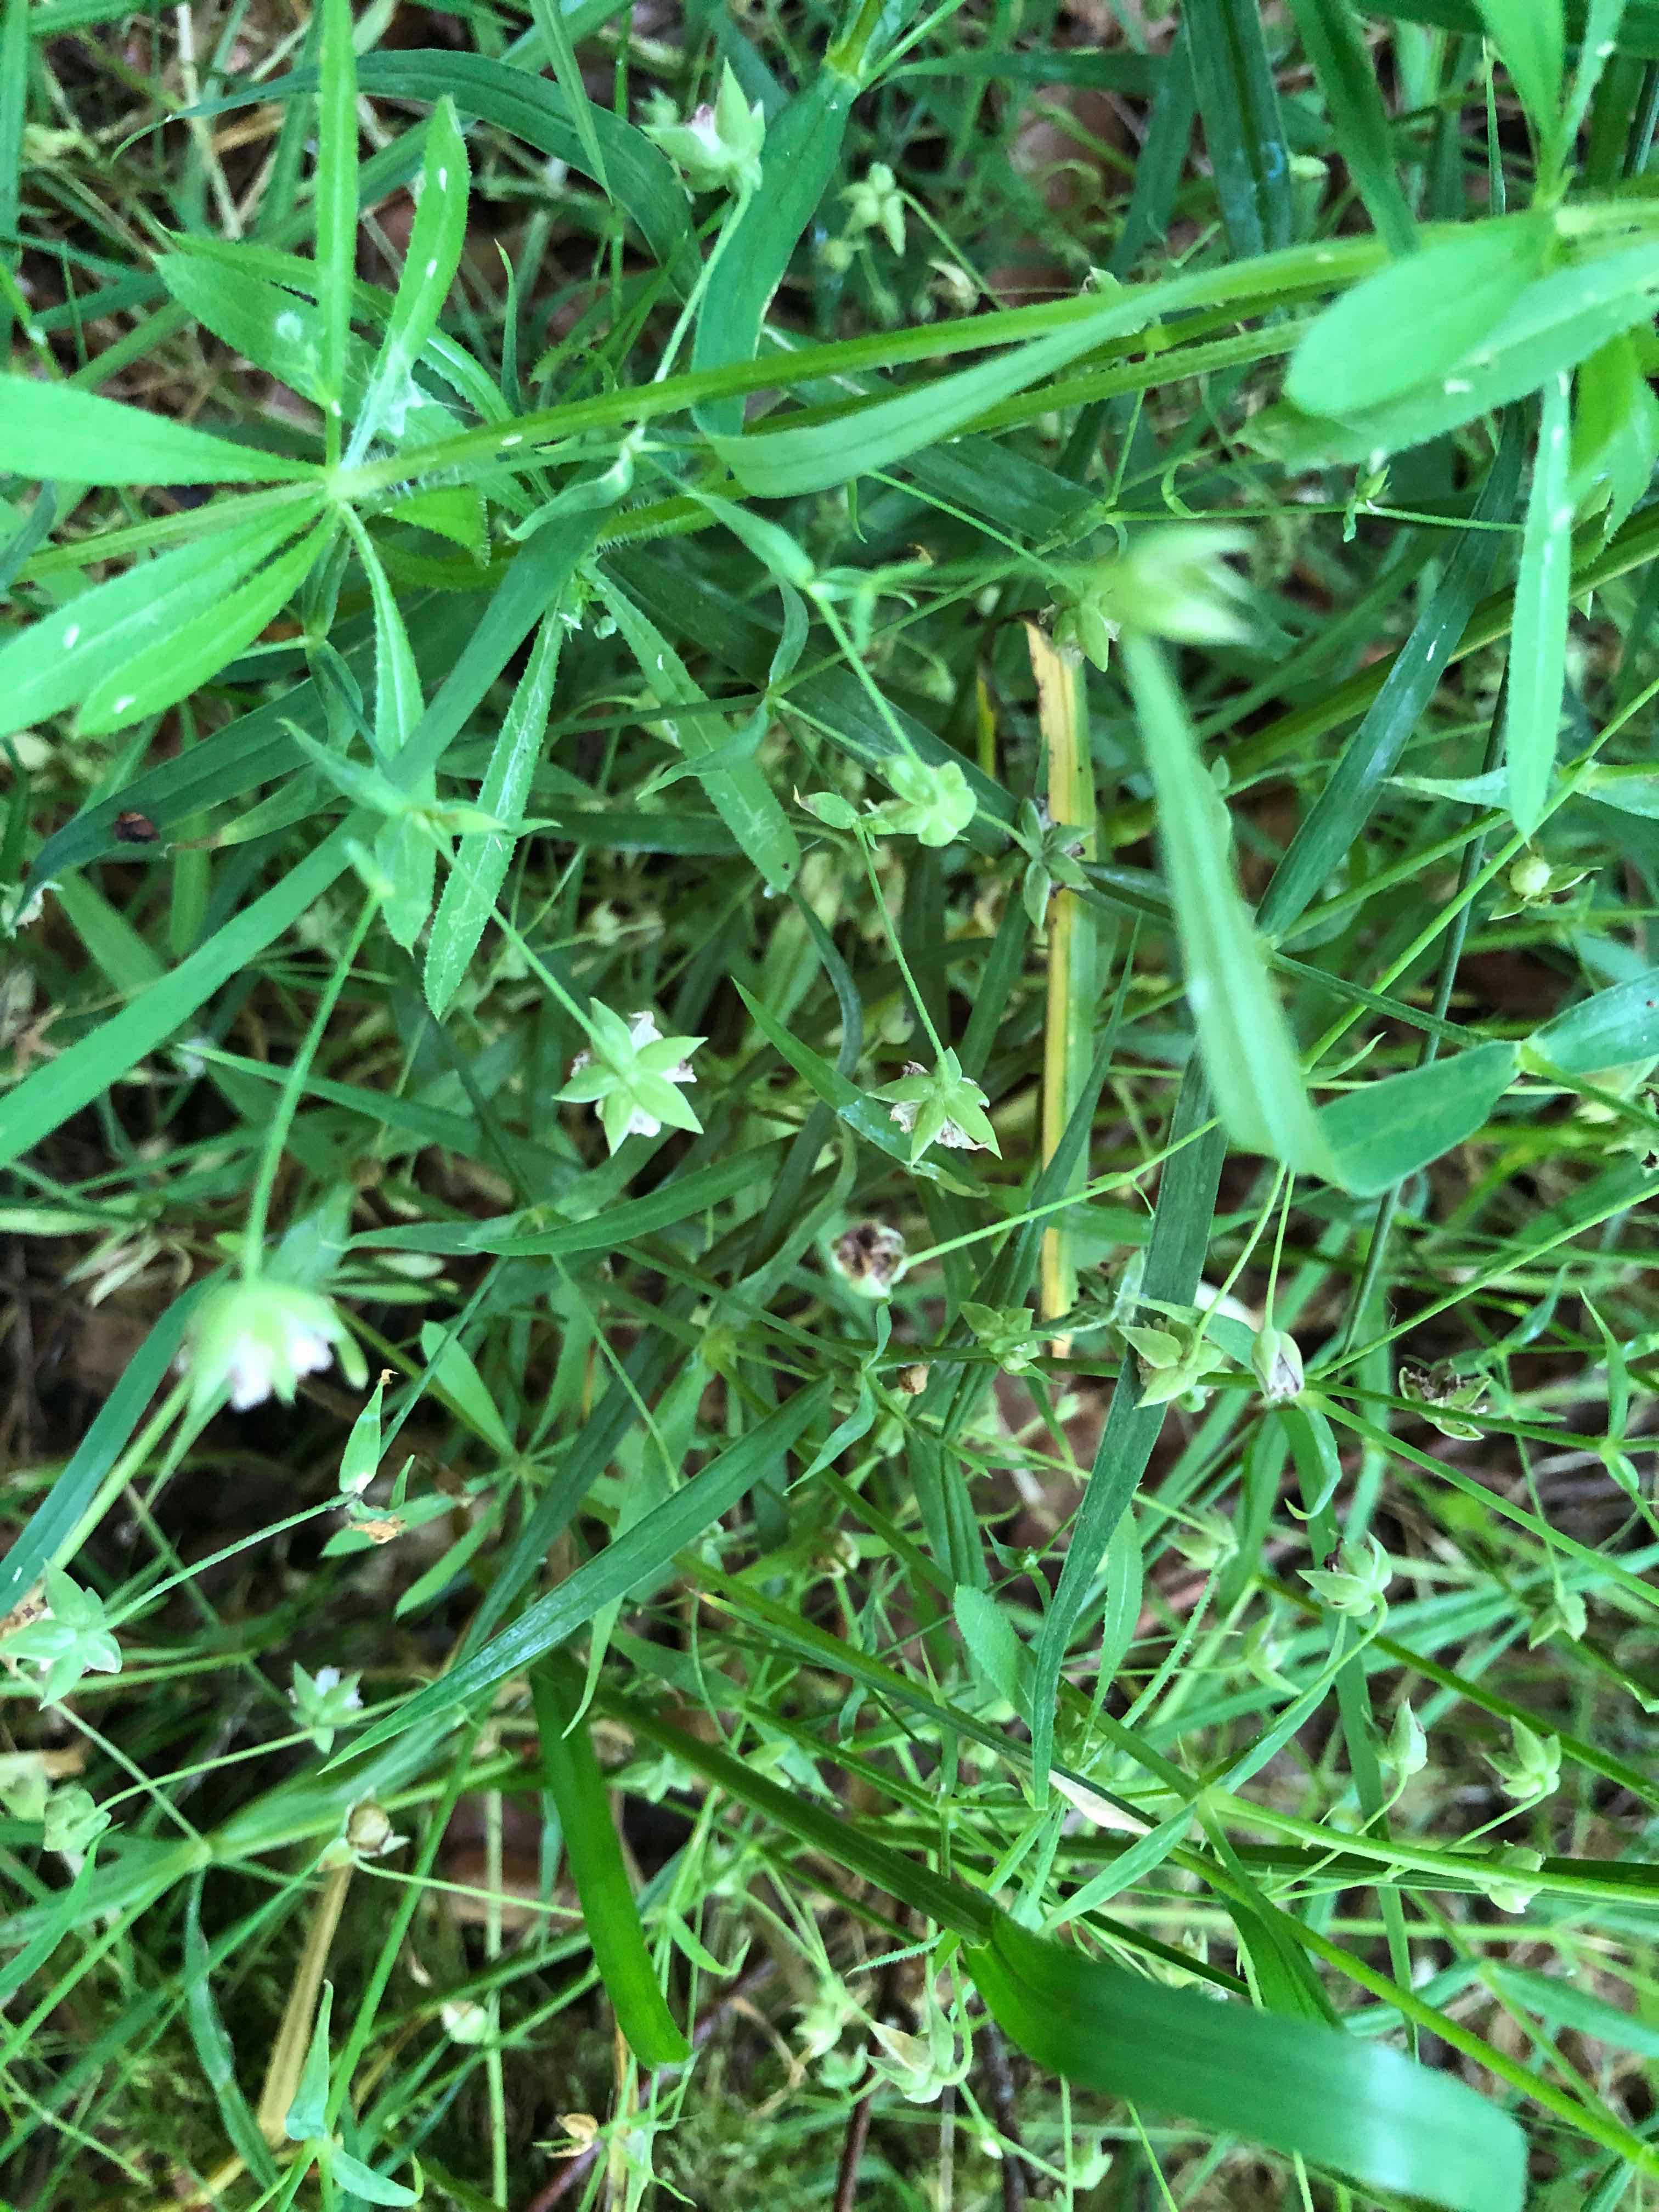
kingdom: Fungi
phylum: Basidiomycota
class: Microbotryomycetes
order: Microbotryales
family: Microbotryaceae
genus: Microbotryum
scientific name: Microbotryum stellariae
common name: fladstjerne-støvbladrust
